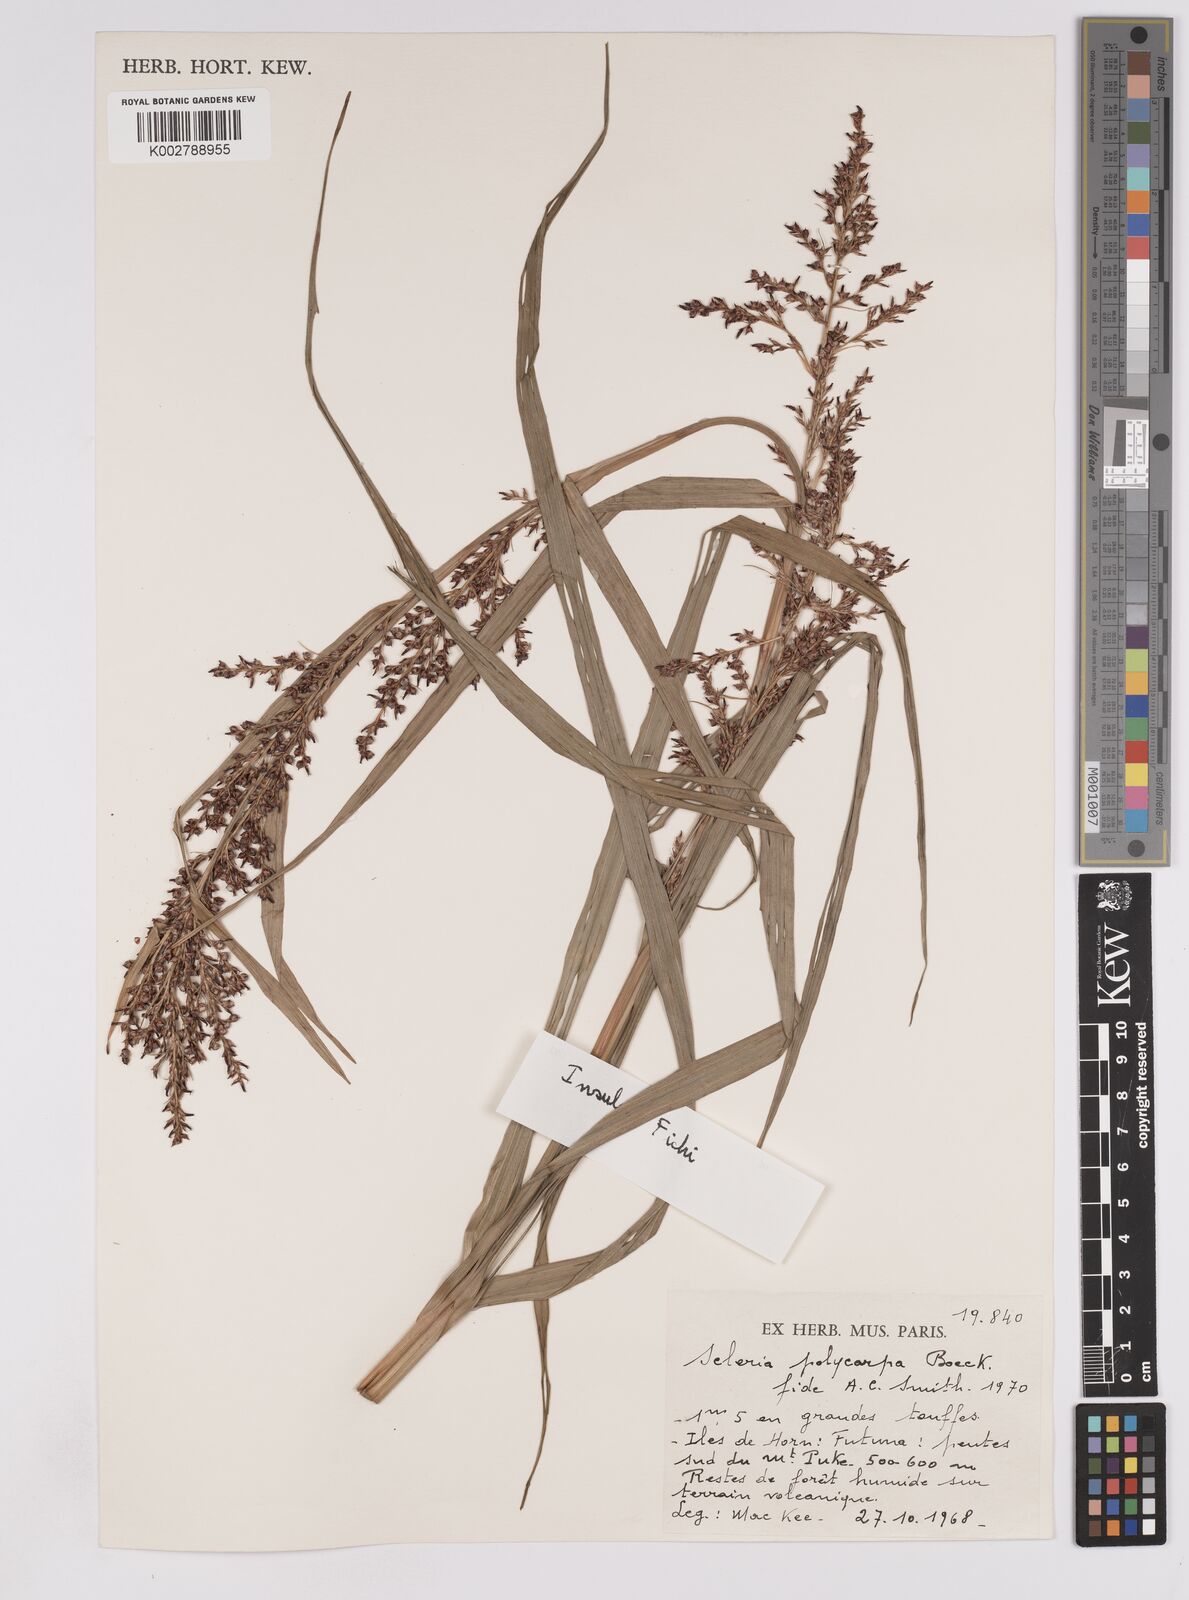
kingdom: Plantae
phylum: Tracheophyta
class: Liliopsida
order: Poales
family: Cyperaceae
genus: Scleria
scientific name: Scleria polycarpa
